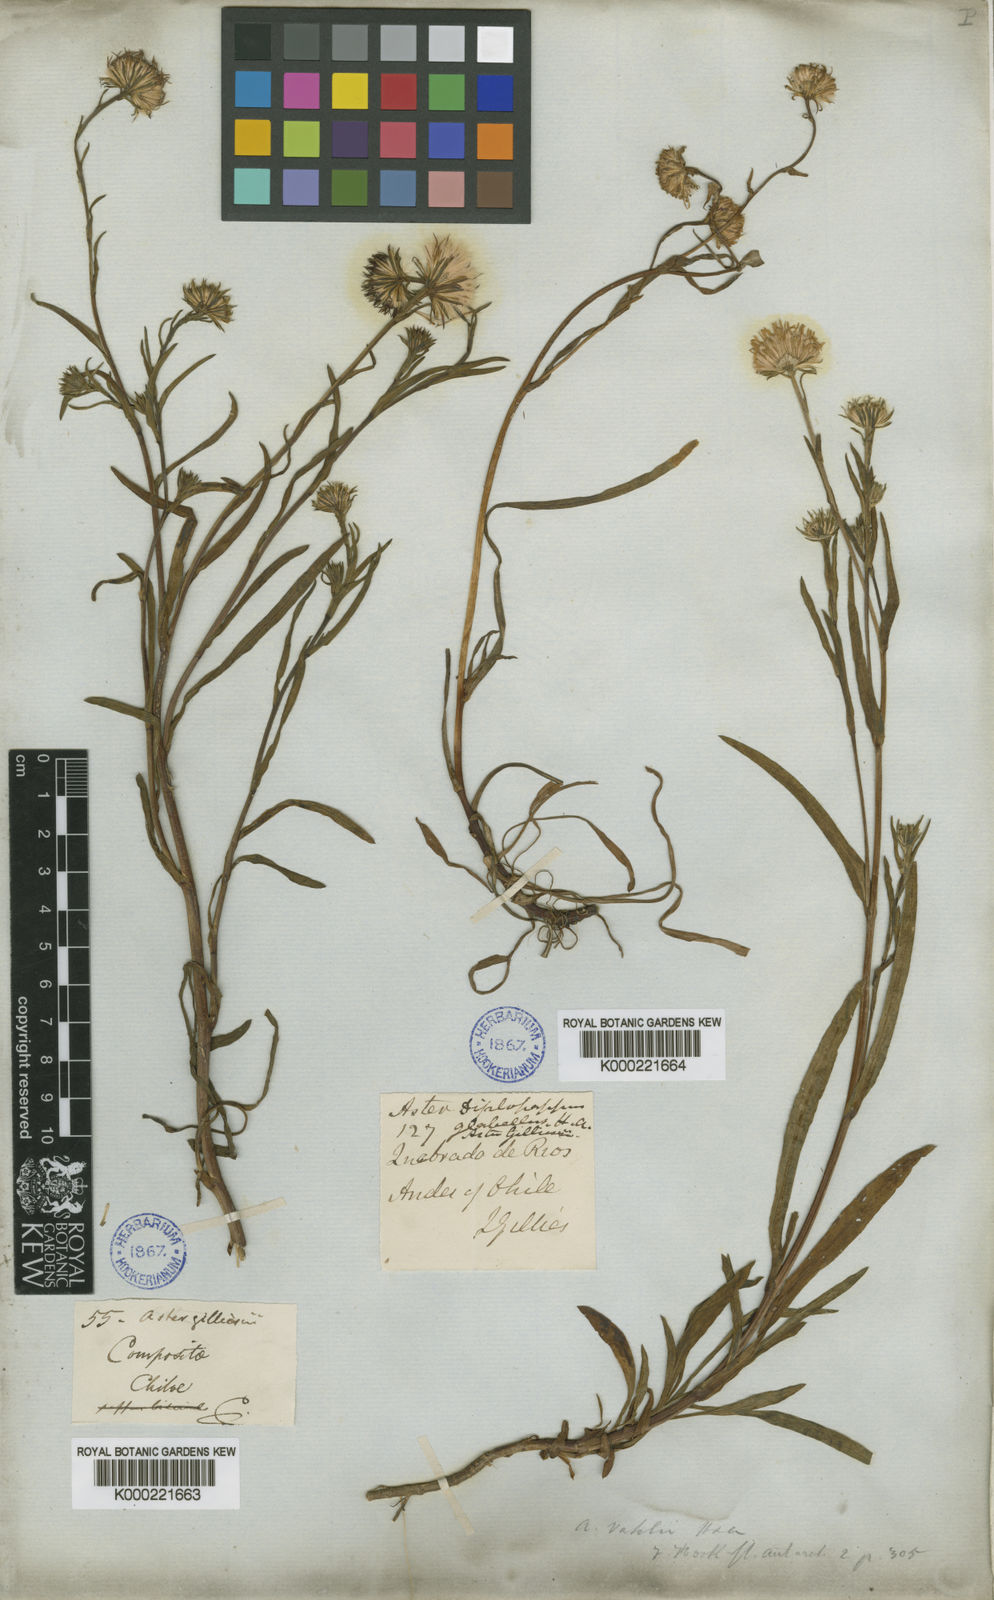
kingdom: Plantae
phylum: Tracheophyta
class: Magnoliopsida
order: Asterales
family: Asteraceae
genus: Symphyotrichum
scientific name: Symphyotrichum vahlii
